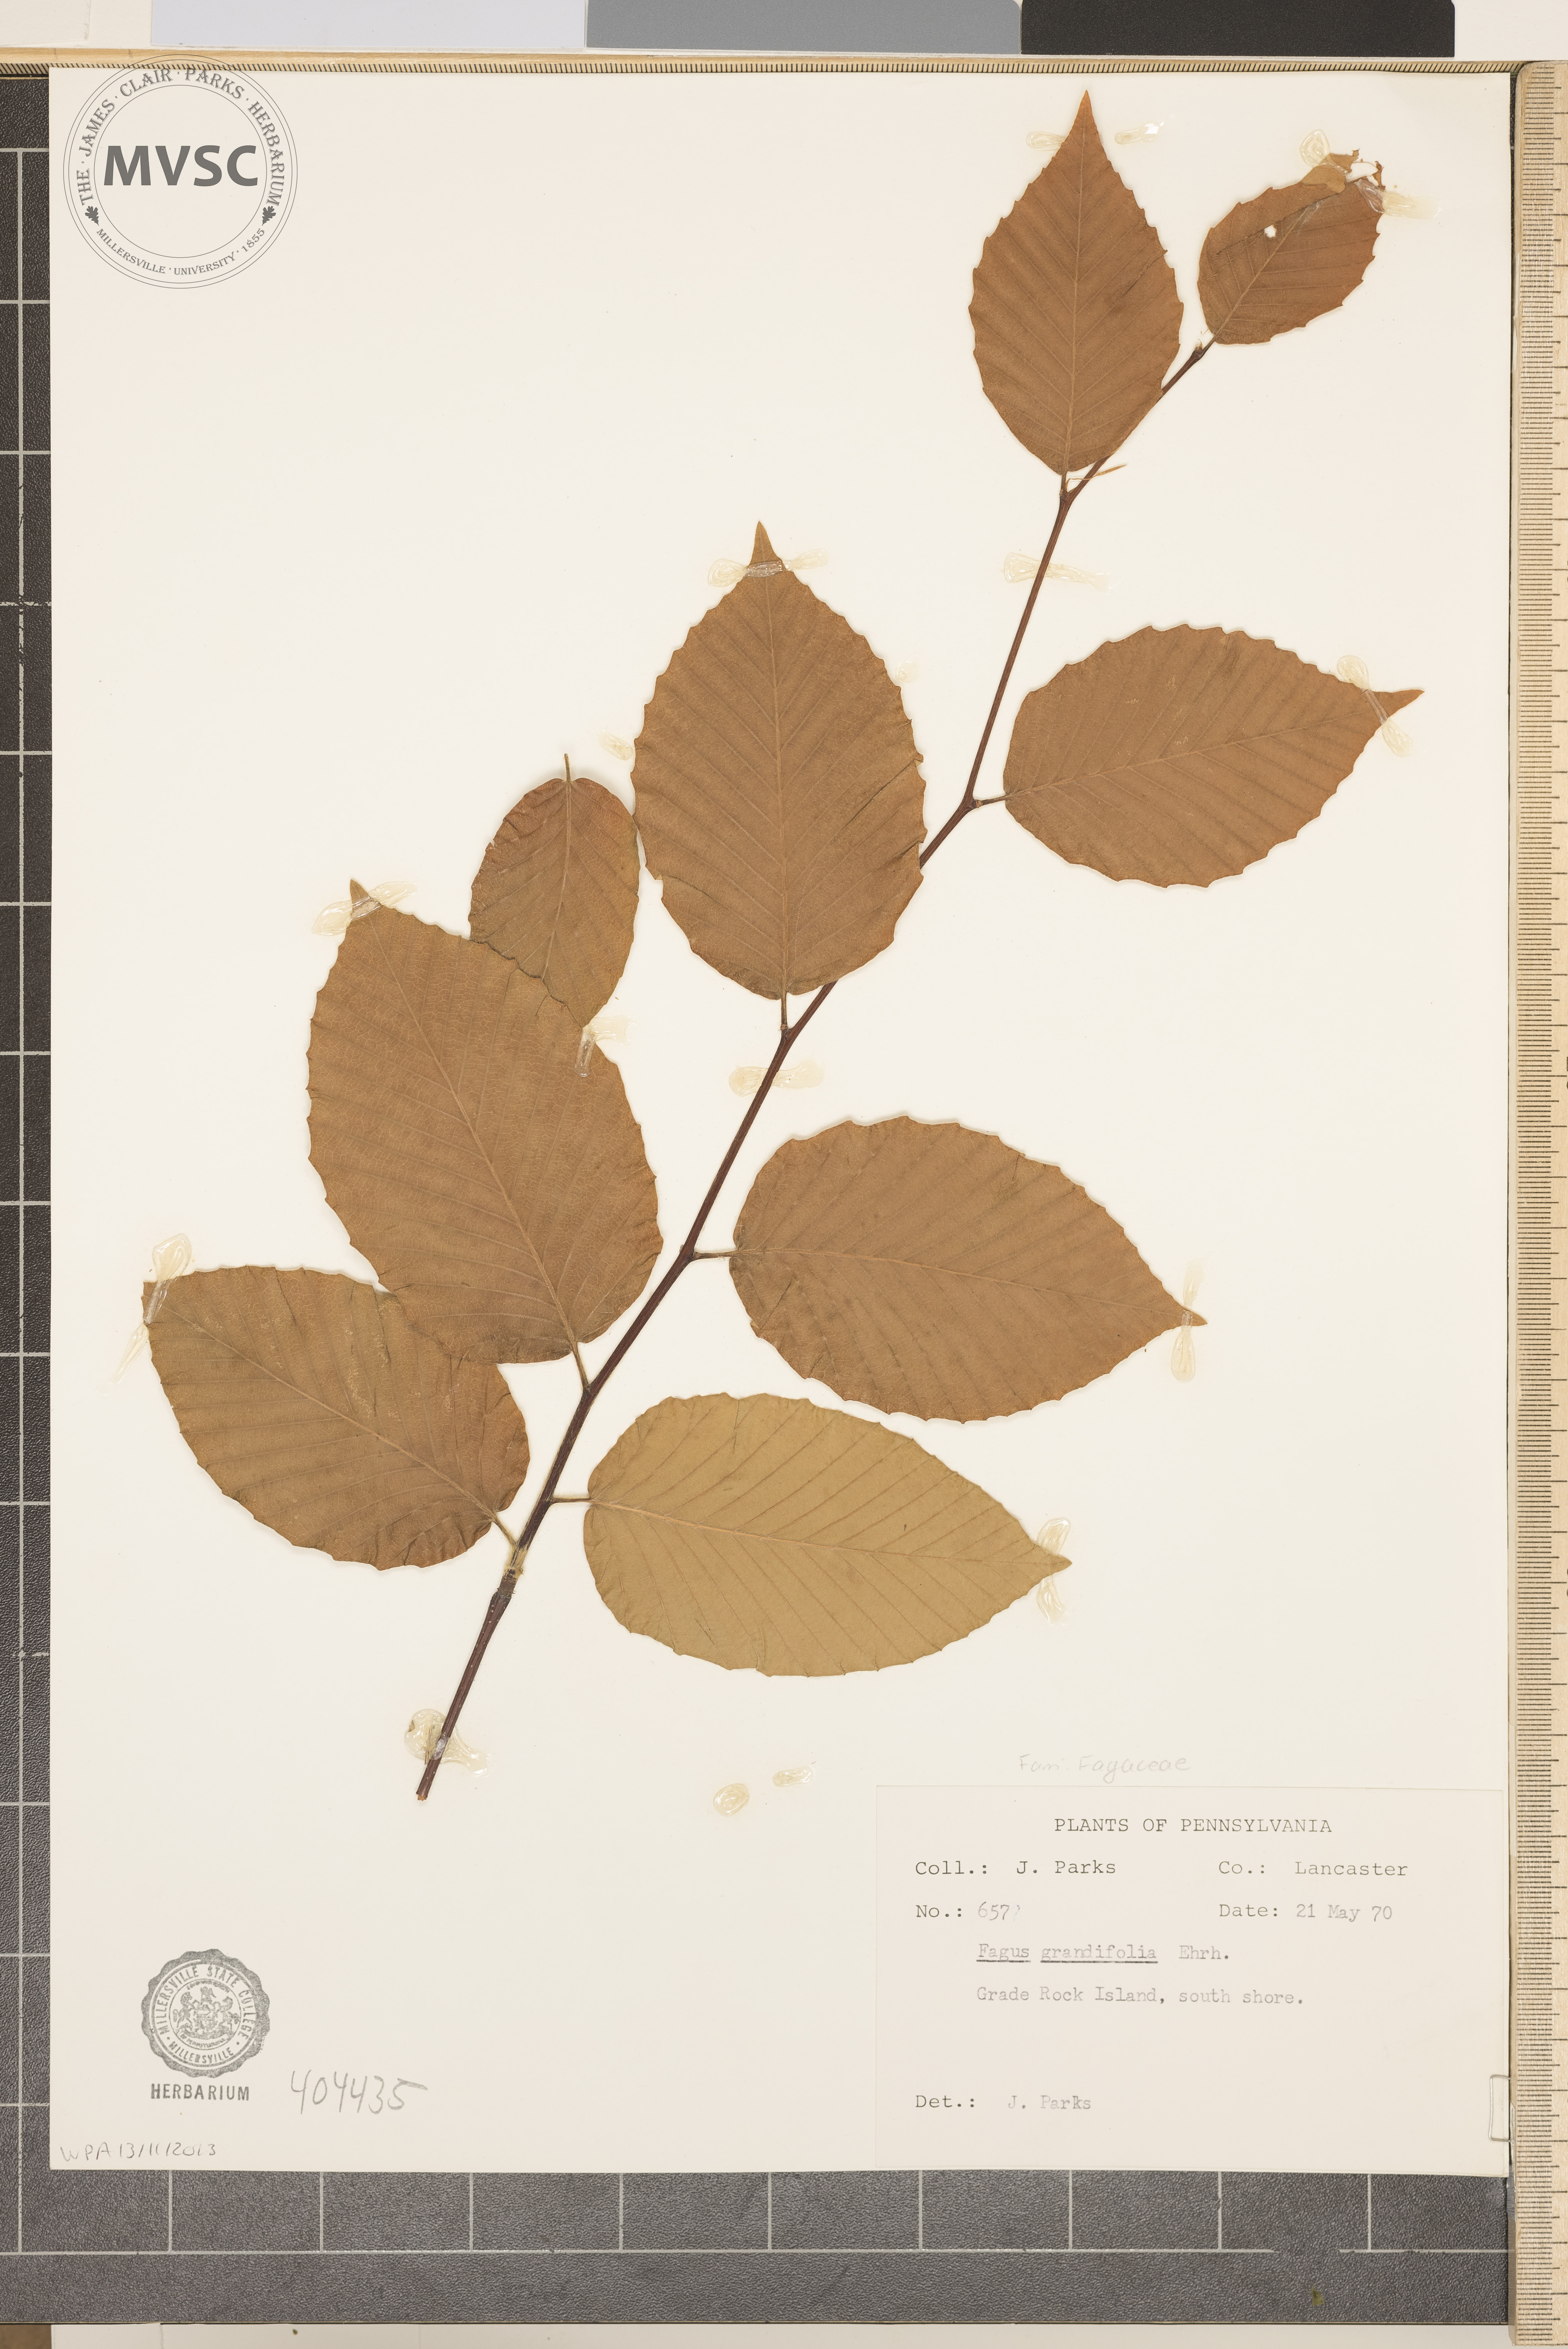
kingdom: Plantae
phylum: Tracheophyta
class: Magnoliopsida
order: Fagales
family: Fagaceae
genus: Fagus
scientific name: Fagus grandifolia
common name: American beech
